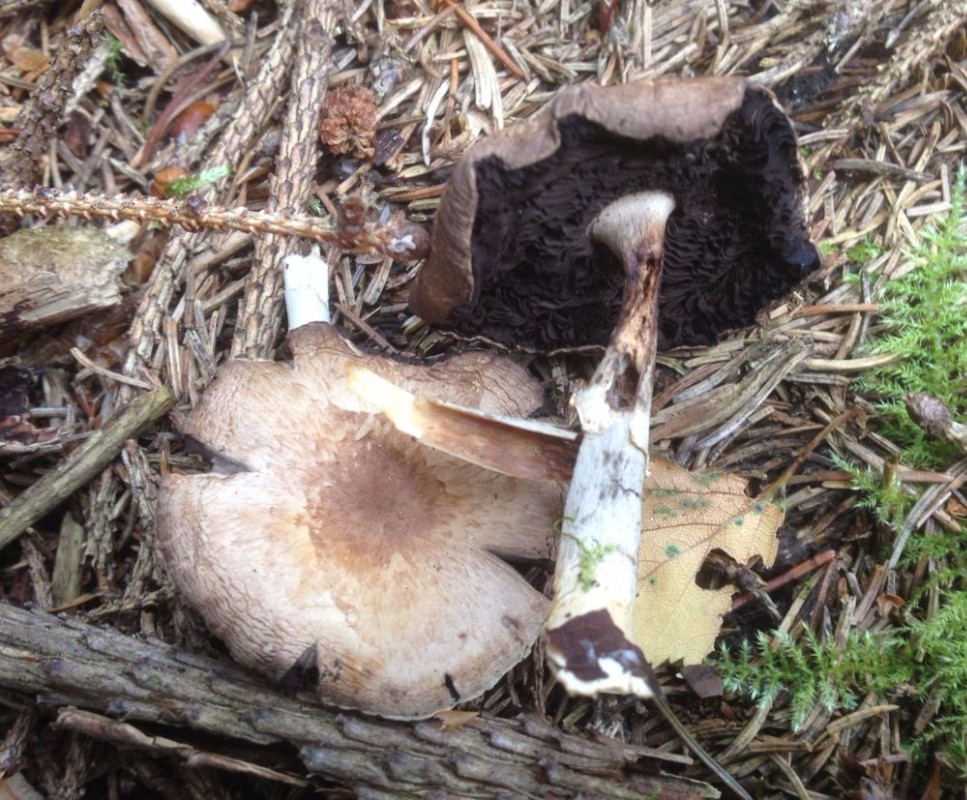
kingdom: Fungi
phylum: Basidiomycota
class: Agaricomycetes
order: Agaricales
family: Agaricaceae
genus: Agaricus
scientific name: Agaricus
